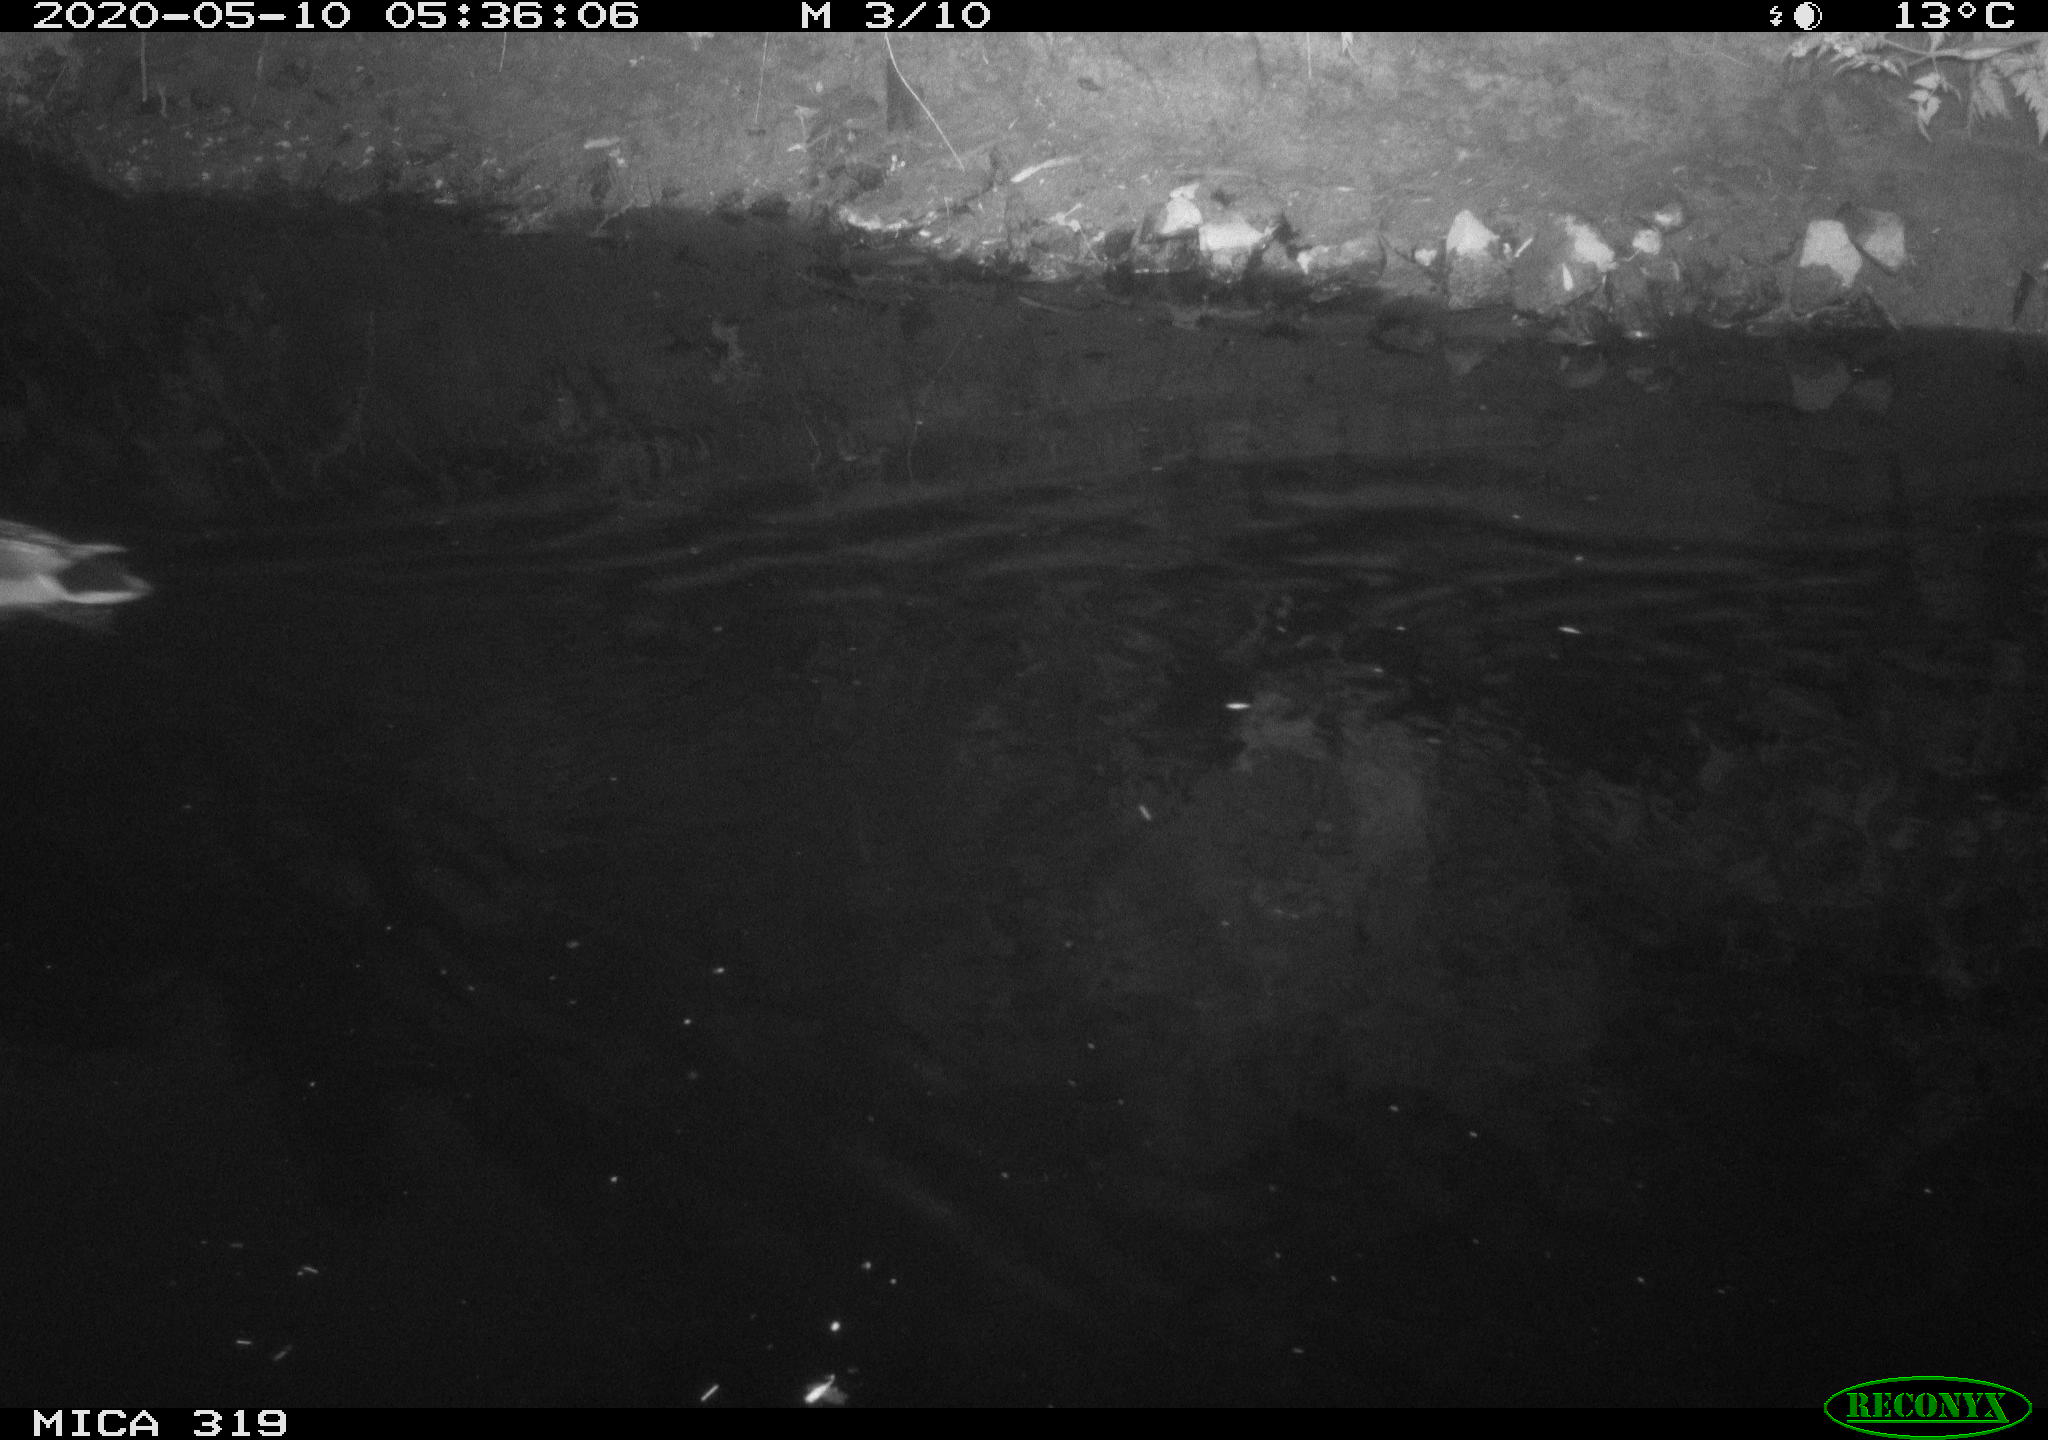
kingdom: Animalia
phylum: Chordata
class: Aves
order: Anseriformes
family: Anatidae
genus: Anas
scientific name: Anas platyrhynchos
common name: Mallard
